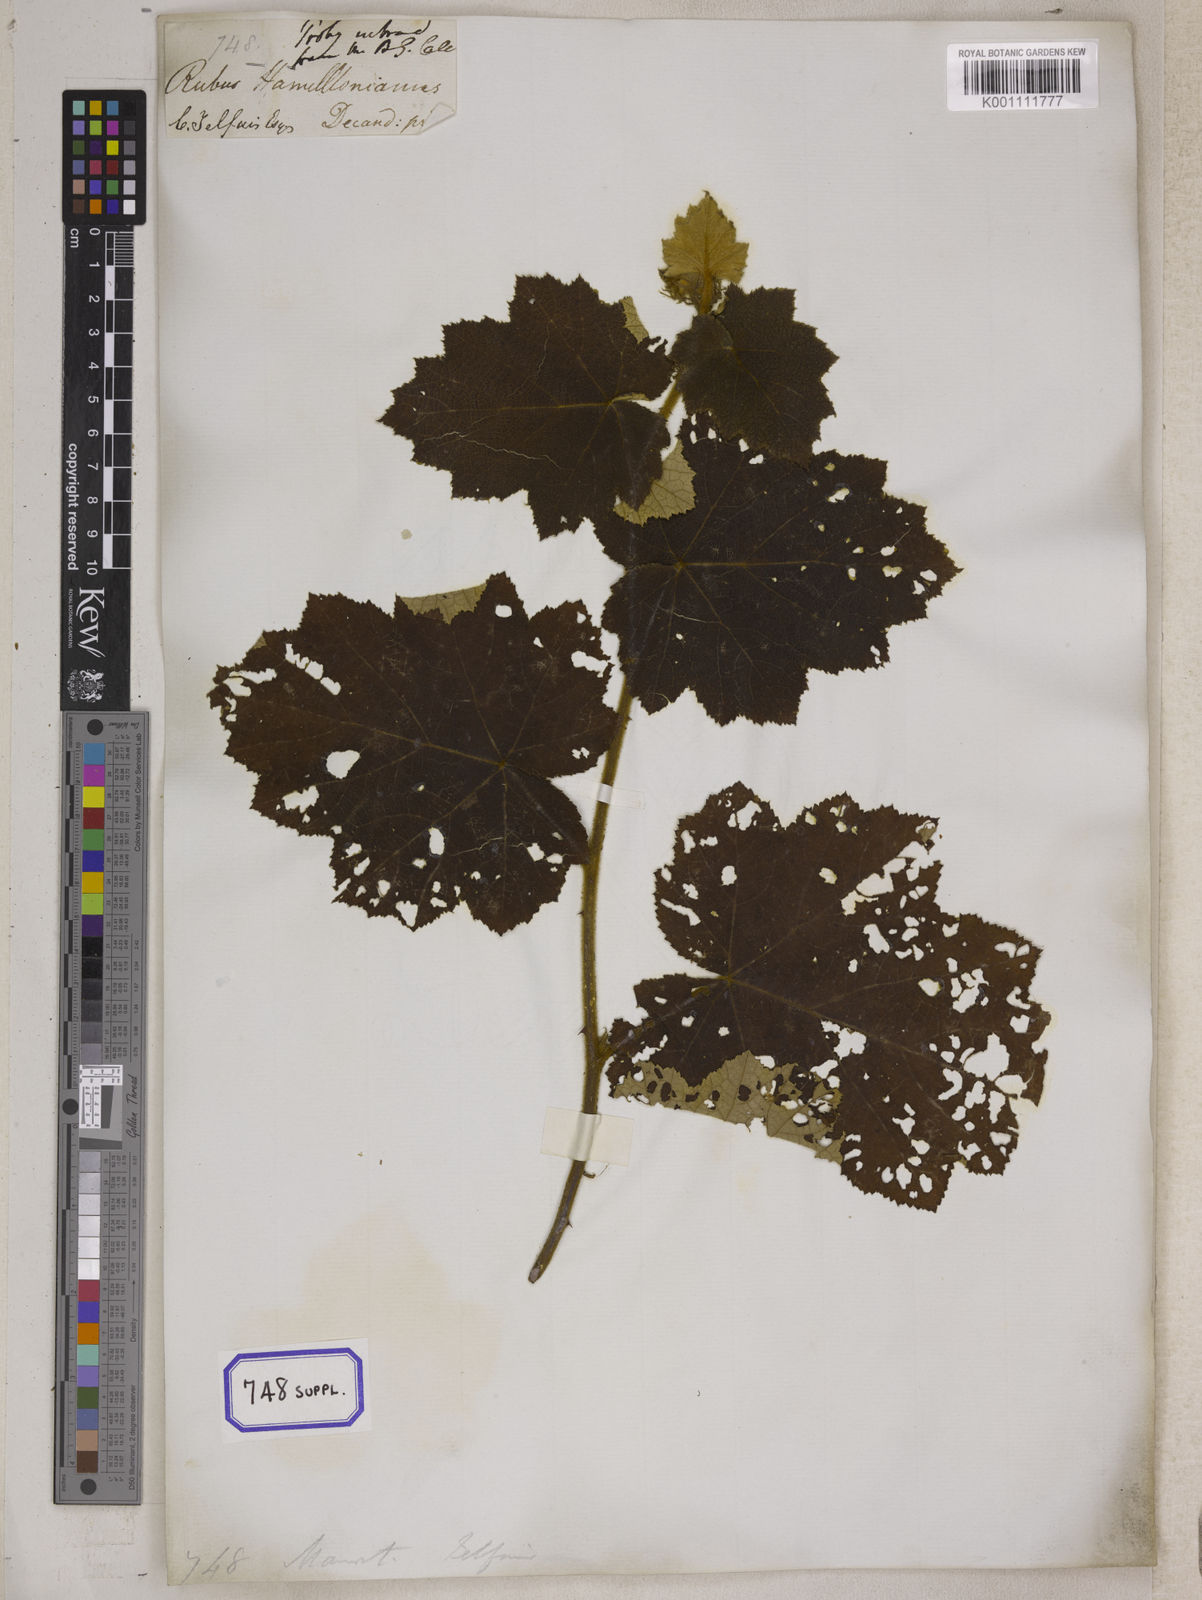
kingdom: Plantae
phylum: Tracheophyta
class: Magnoliopsida
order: Rosales
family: Rosaceae
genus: Rubus
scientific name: Rubus
